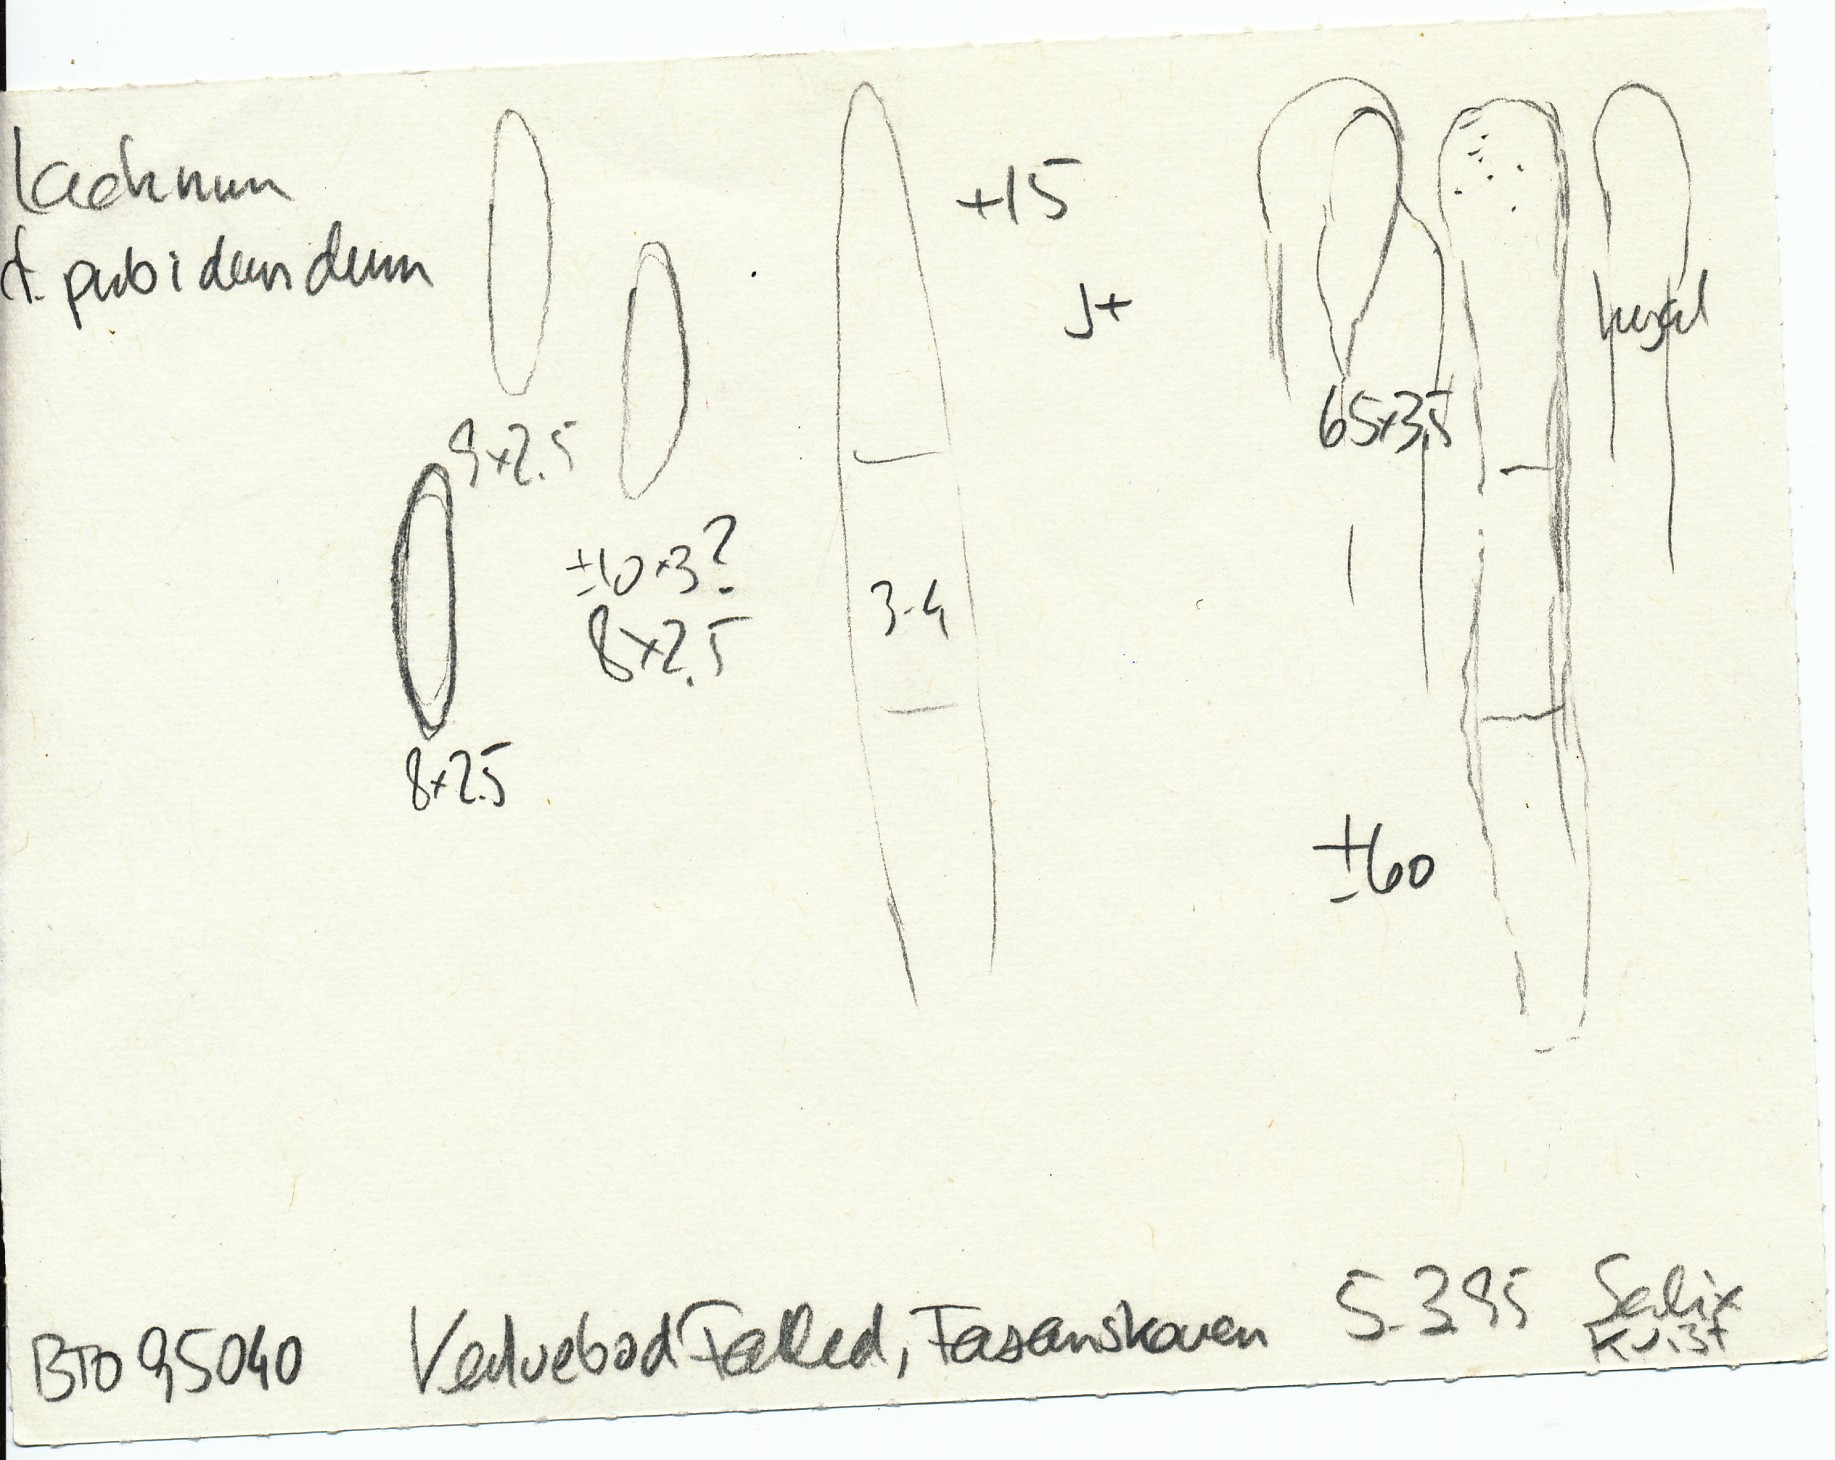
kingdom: Fungi
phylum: Ascomycota
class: Leotiomycetes
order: Helotiales
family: Lachnaceae
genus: Lachnum
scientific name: Lachnum pudibundum
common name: brude-frynseskive
